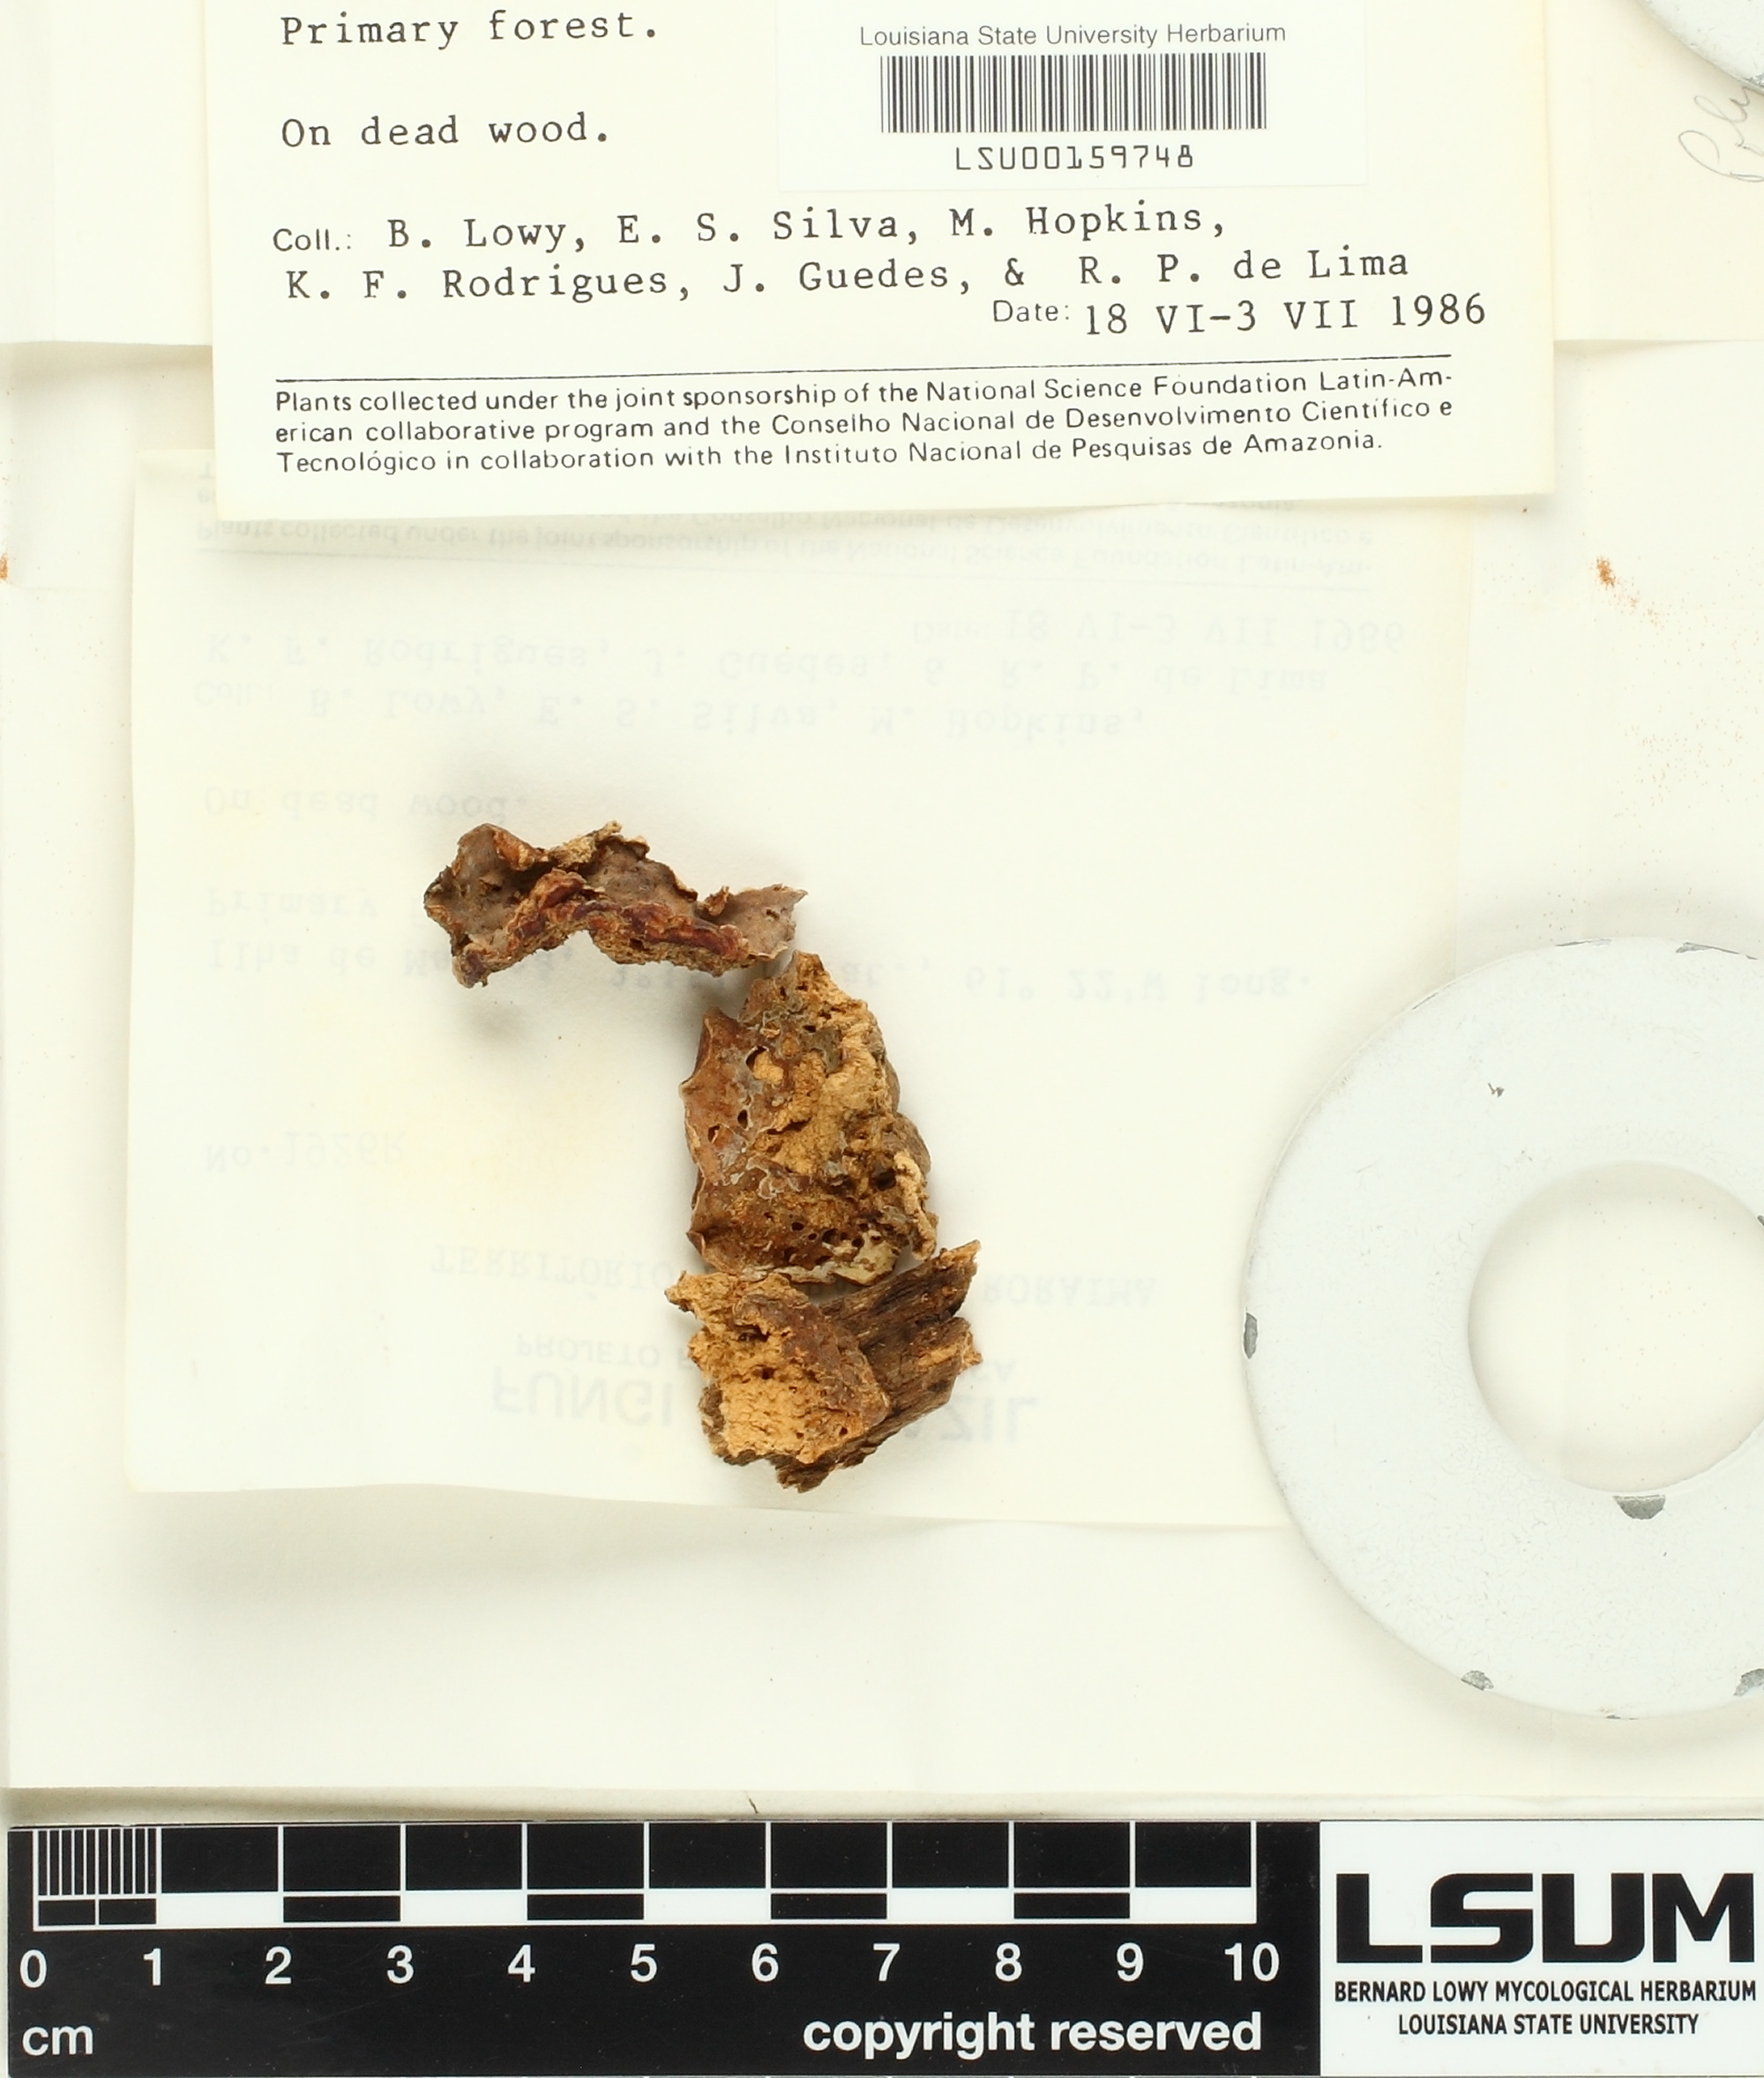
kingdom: Fungi
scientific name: Fungi
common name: Fungi
